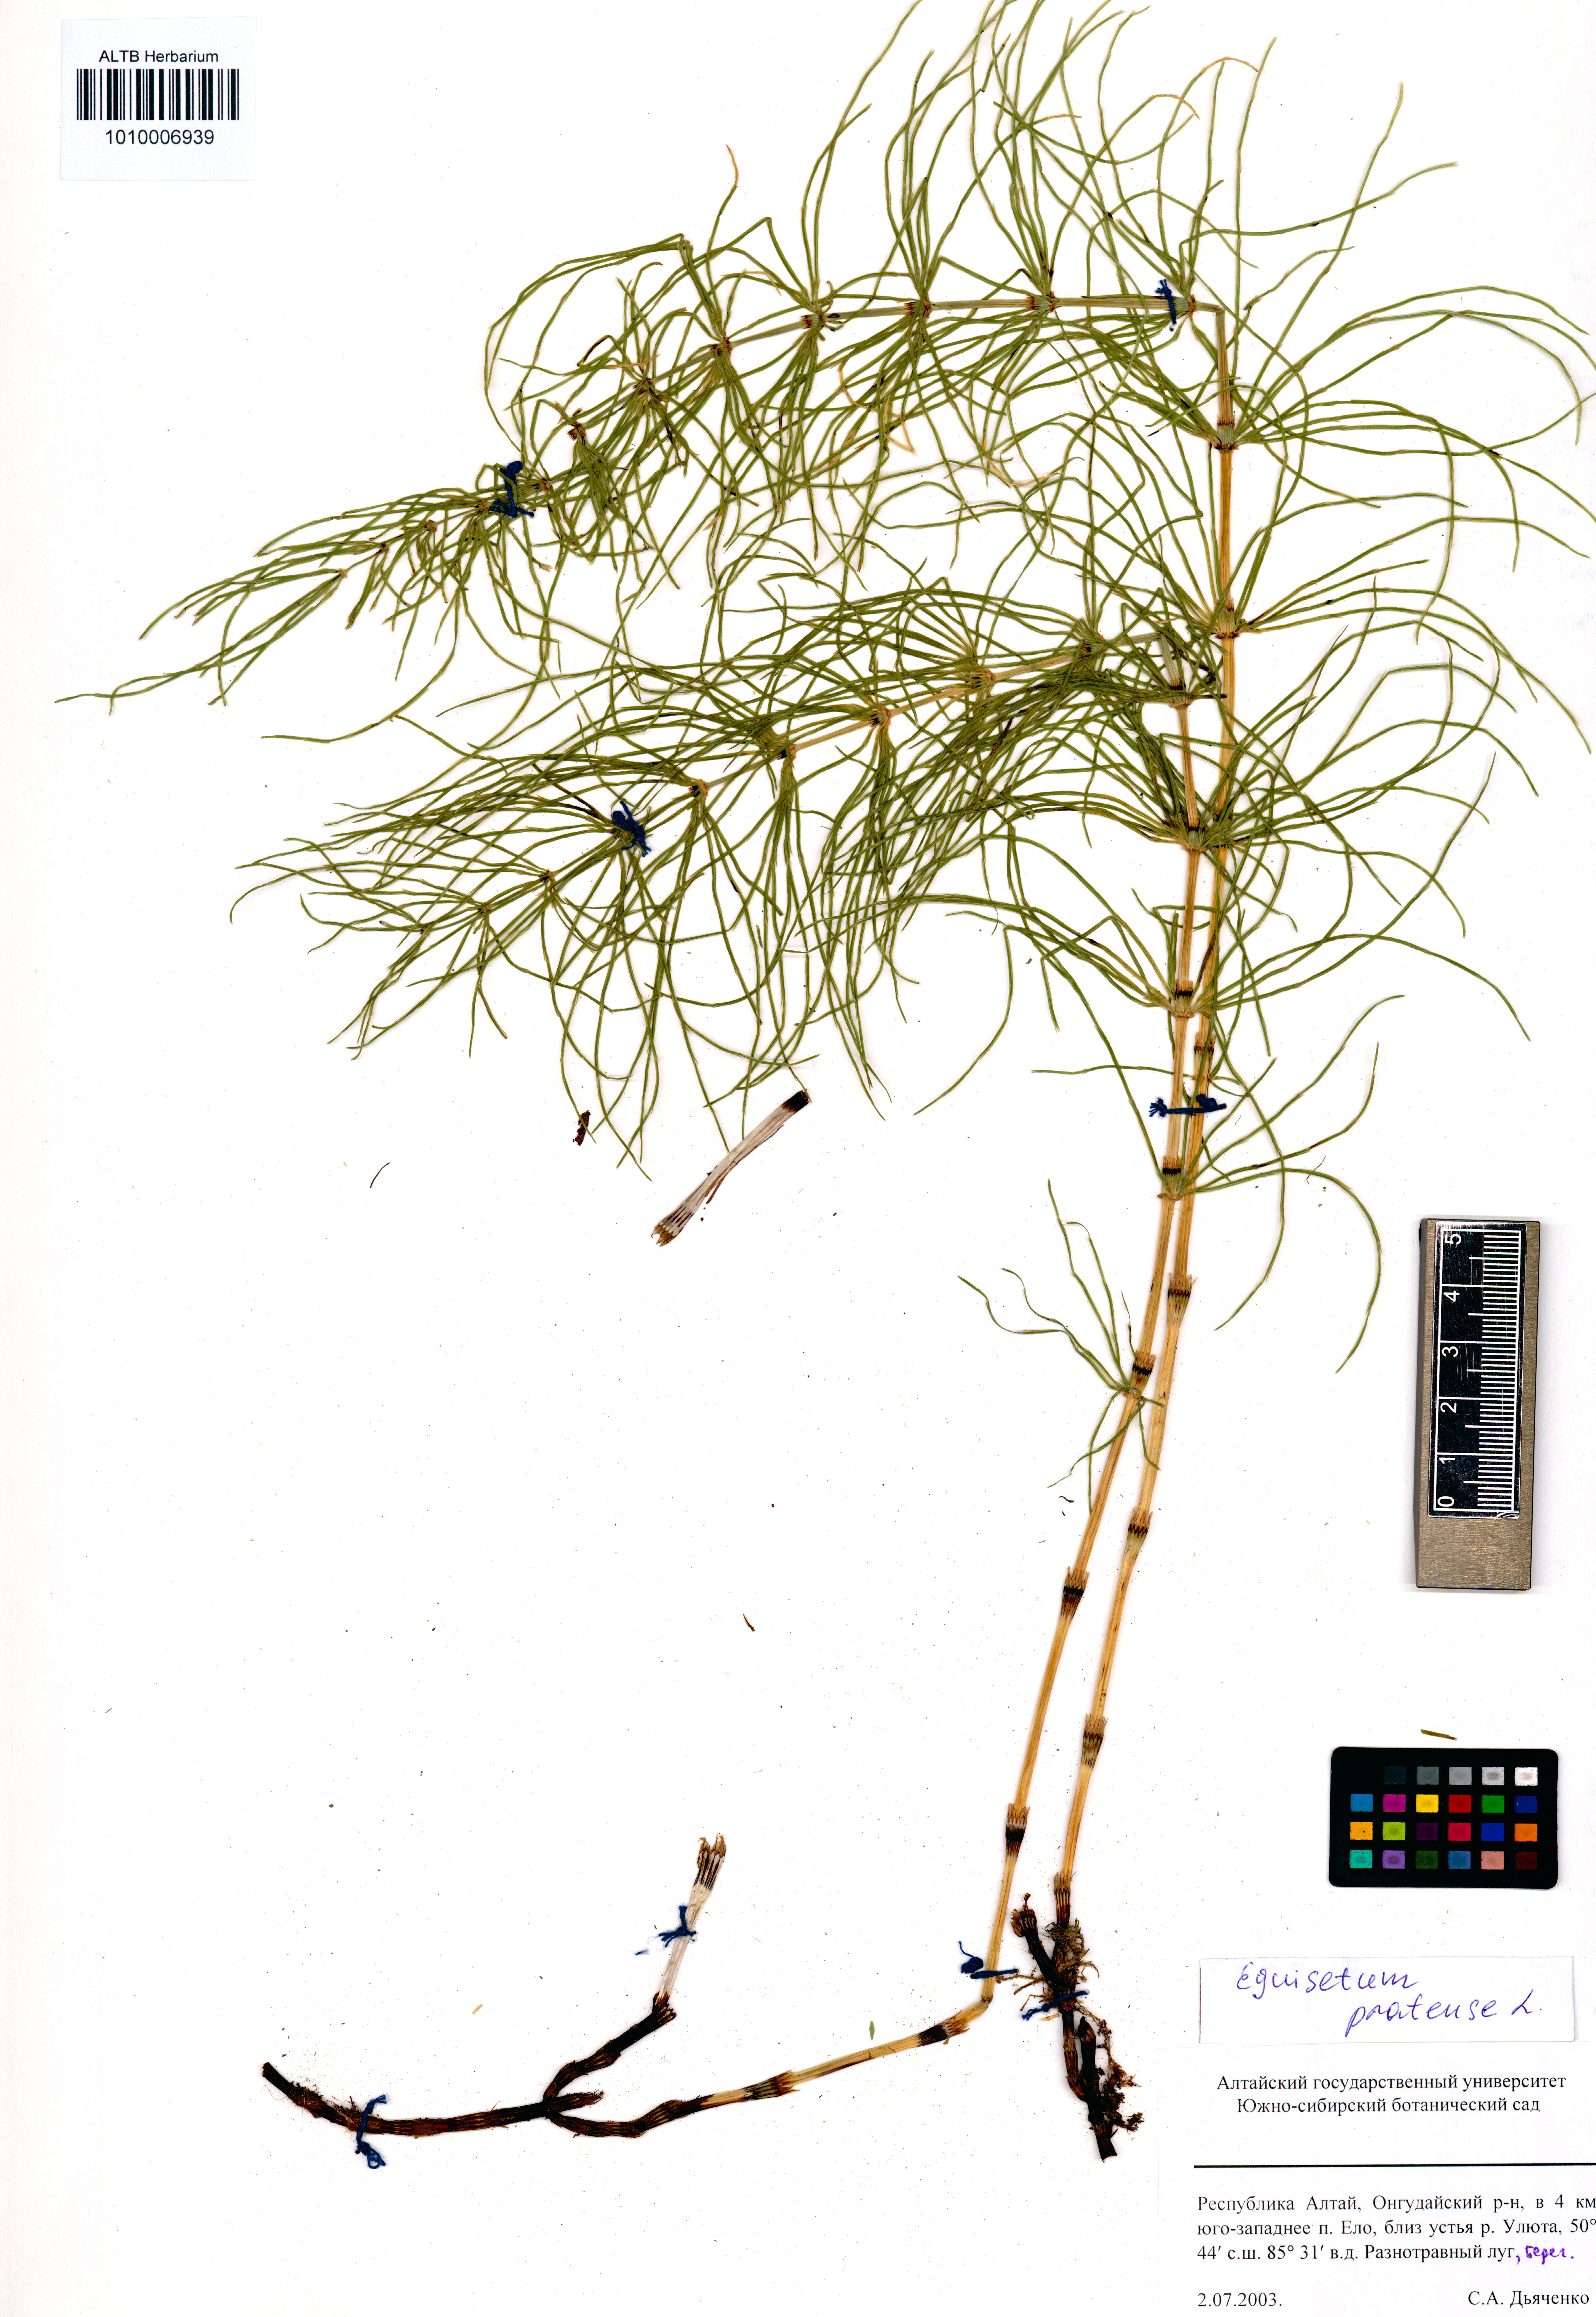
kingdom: Plantae
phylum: Tracheophyta
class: Polypodiopsida
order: Equisetales
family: Equisetaceae
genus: Equisetum
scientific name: Equisetum pratense
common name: Meadow horsetail
